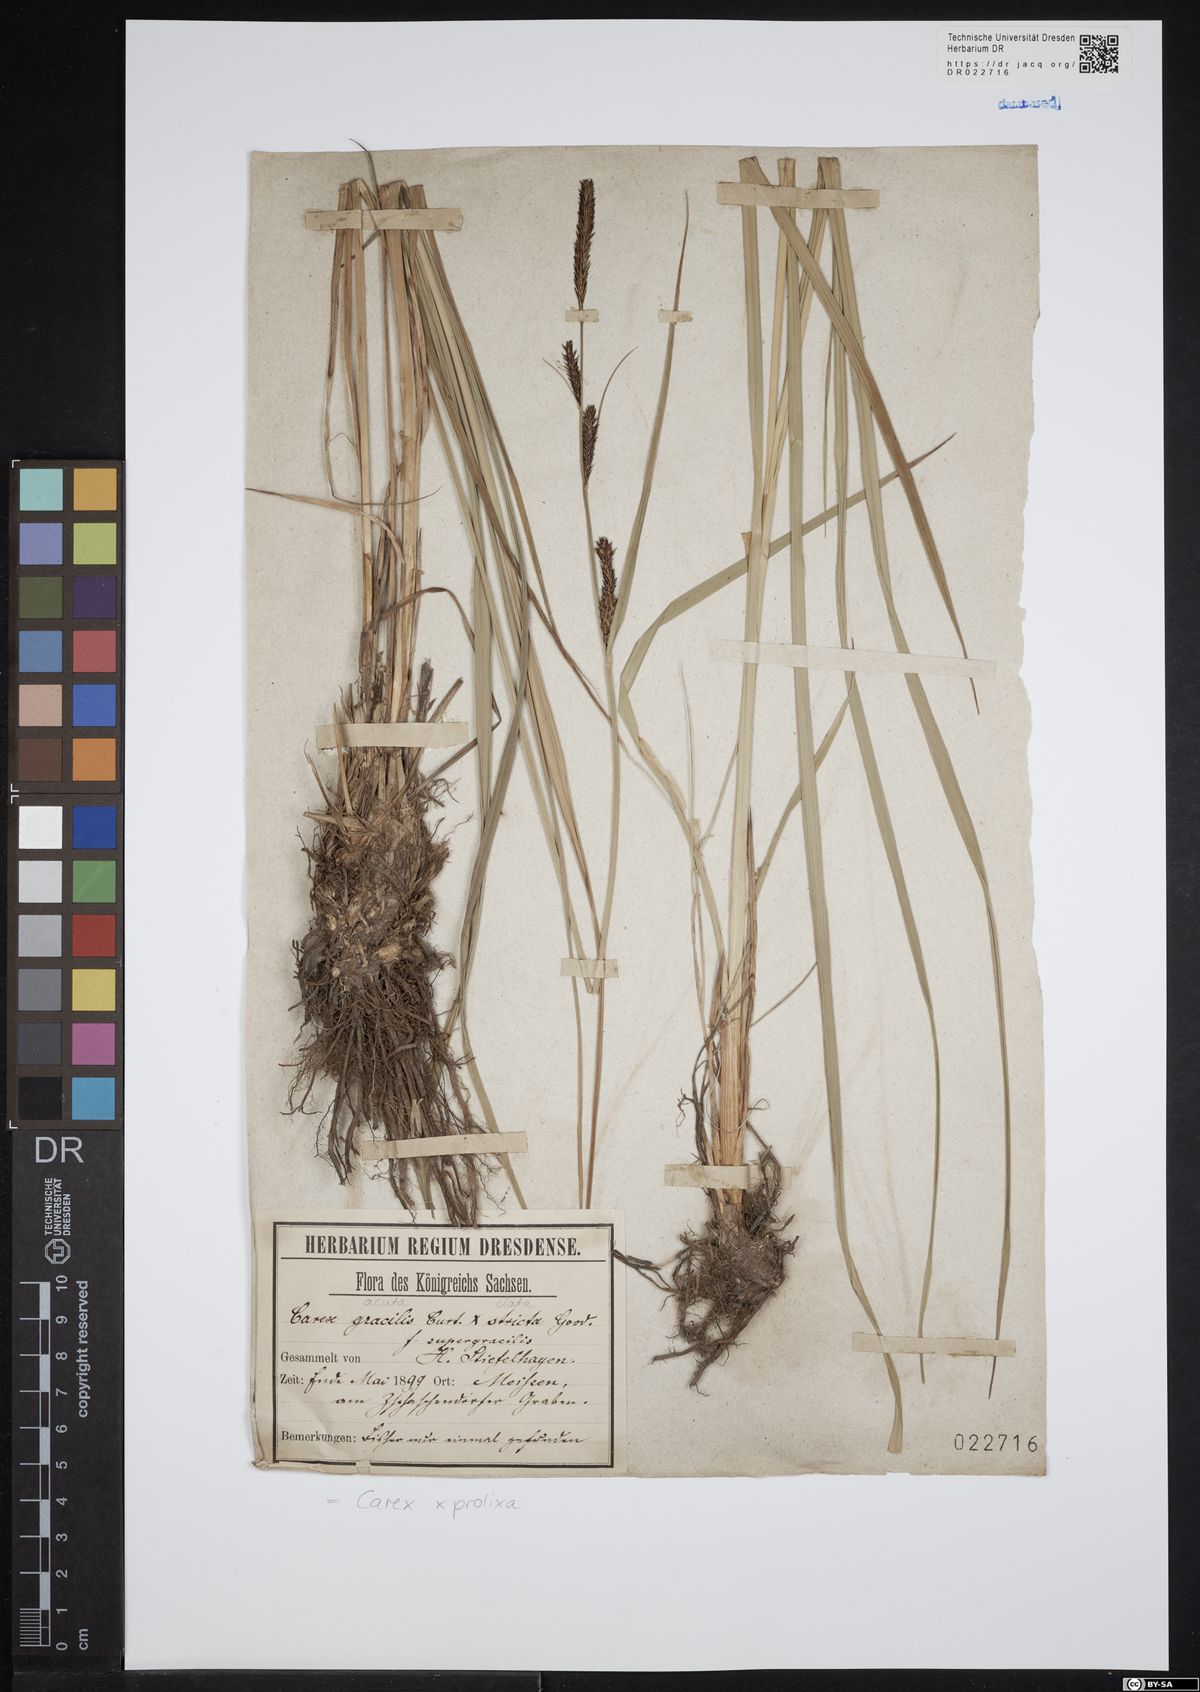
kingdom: Plantae
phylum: Tracheophyta
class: Liliopsida
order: Poales
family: Cyperaceae
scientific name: Cyperaceae
